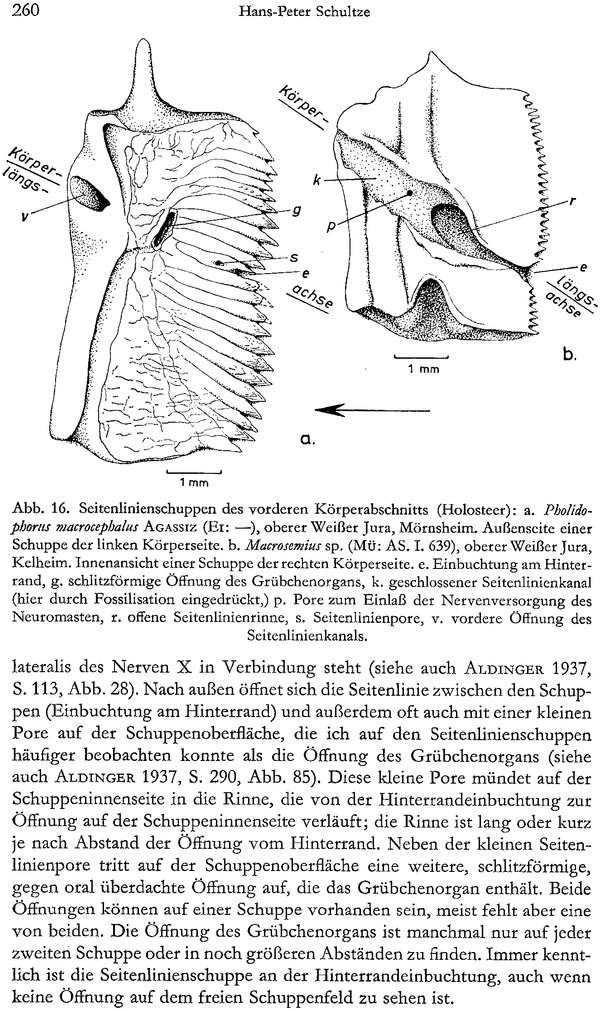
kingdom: Animalia
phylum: Chordata
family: Macrosemiidae
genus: Macrosemius
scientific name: Macrosemius rostratus
